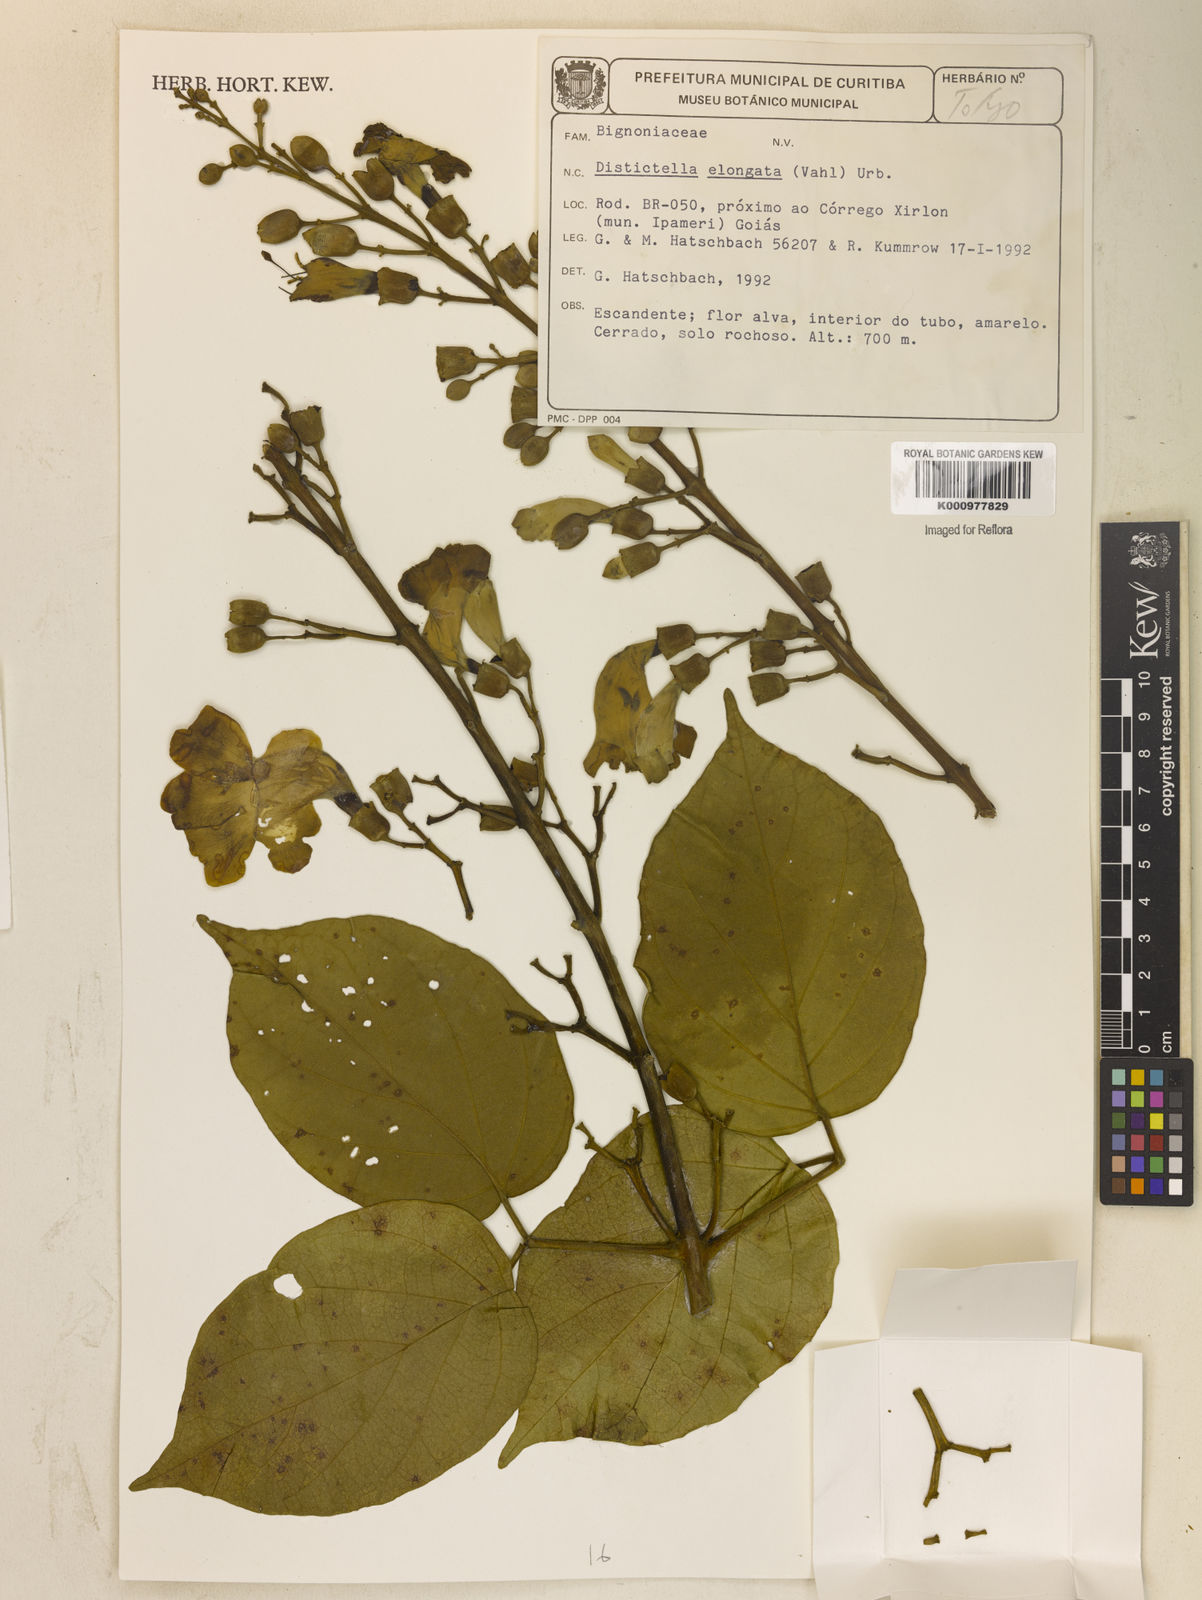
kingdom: Plantae
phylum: Tracheophyta
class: Magnoliopsida
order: Lamiales
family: Bignoniaceae
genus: Amphilophium
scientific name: Amphilophium elongatum
